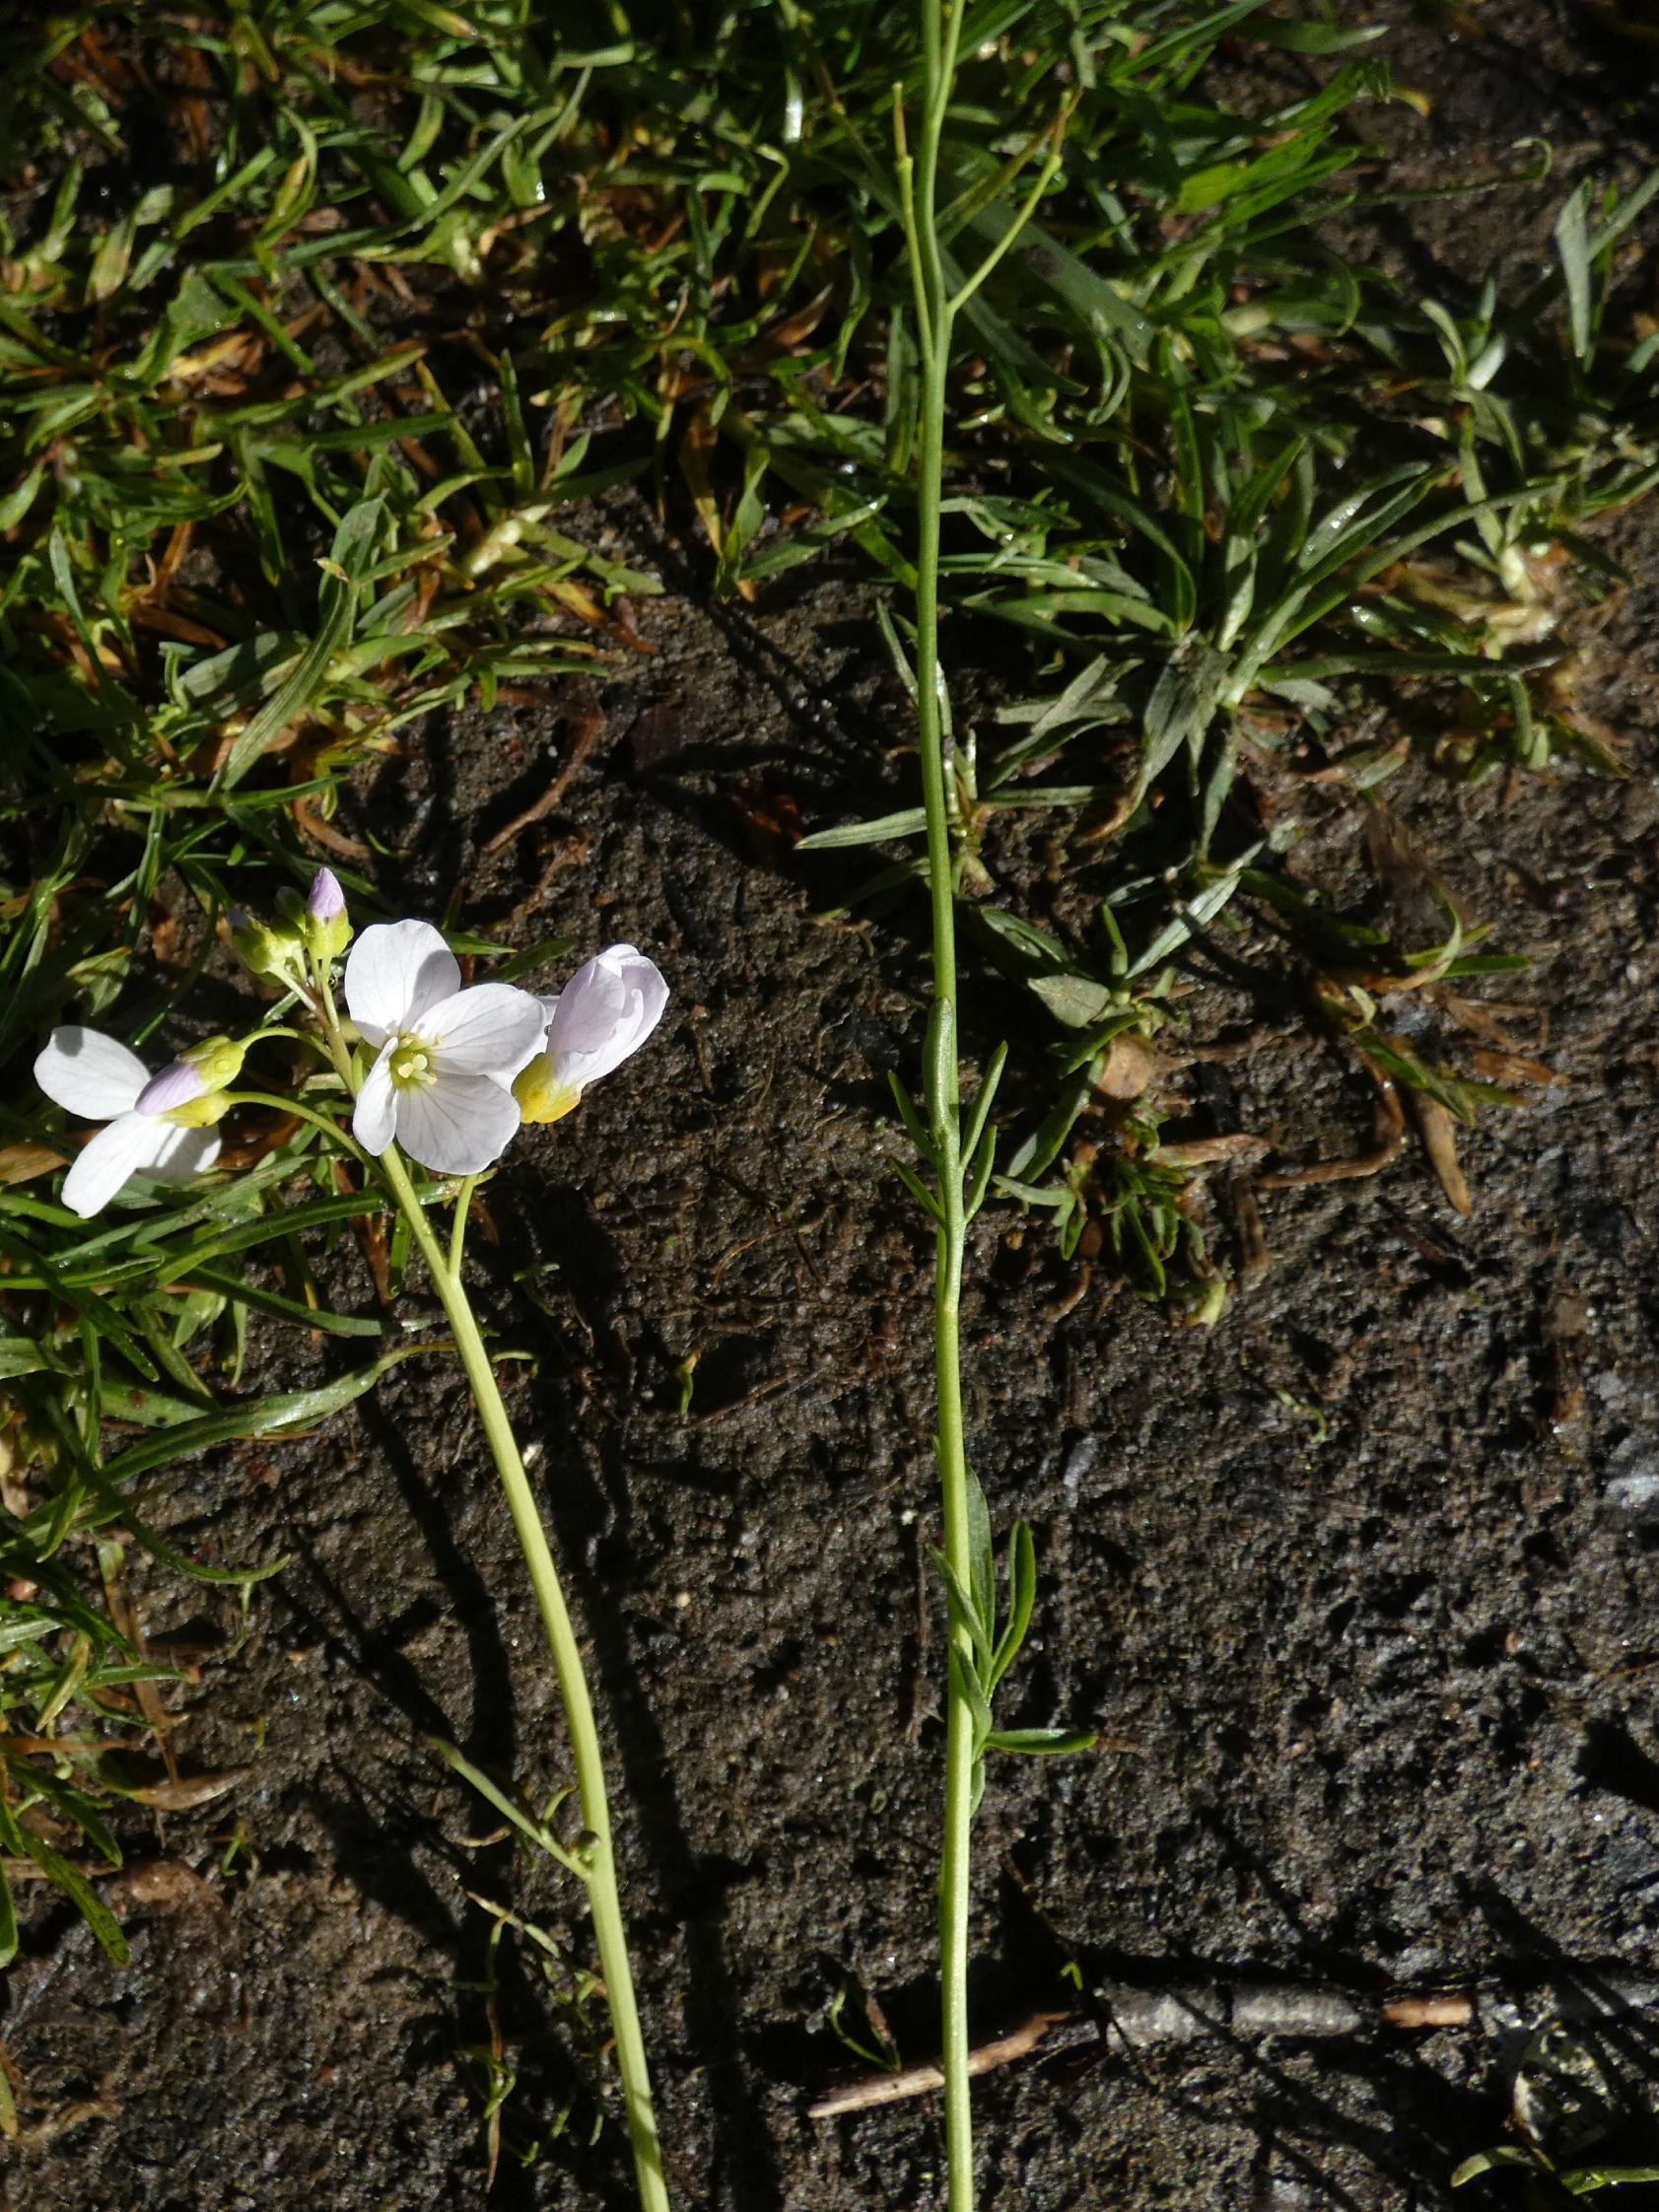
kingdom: Plantae
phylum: Tracheophyta
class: Magnoliopsida
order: Brassicales
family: Brassicaceae
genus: Cardamine
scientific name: Cardamine pratensis
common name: Engkarse
